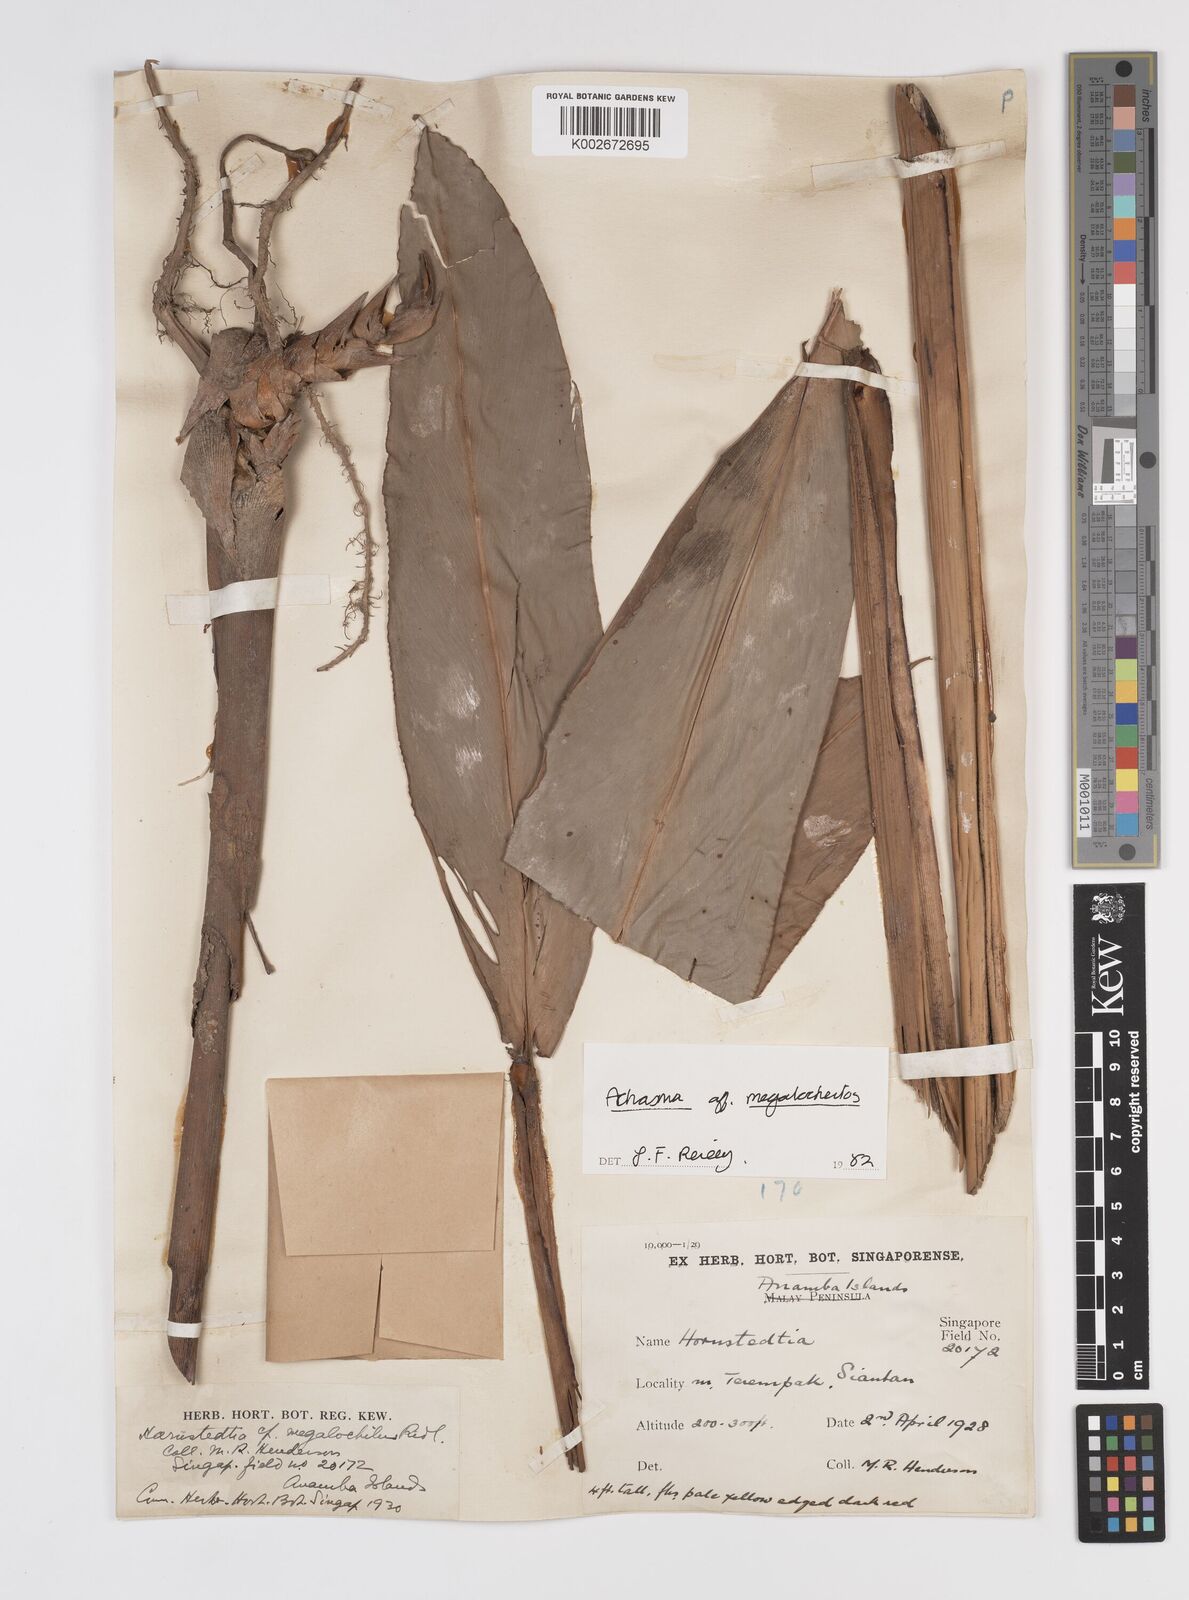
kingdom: Plantae
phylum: Tracheophyta
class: Liliopsida
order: Zingiberales
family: Zingiberaceae
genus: Etlingera
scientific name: Etlingera littoralis
